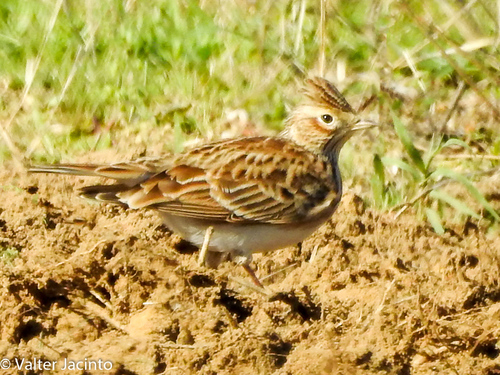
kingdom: Animalia
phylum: Chordata
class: Aves
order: Passeriformes
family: Alaudidae
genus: Alauda
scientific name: Alauda arvensis
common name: Eurasian skylark
